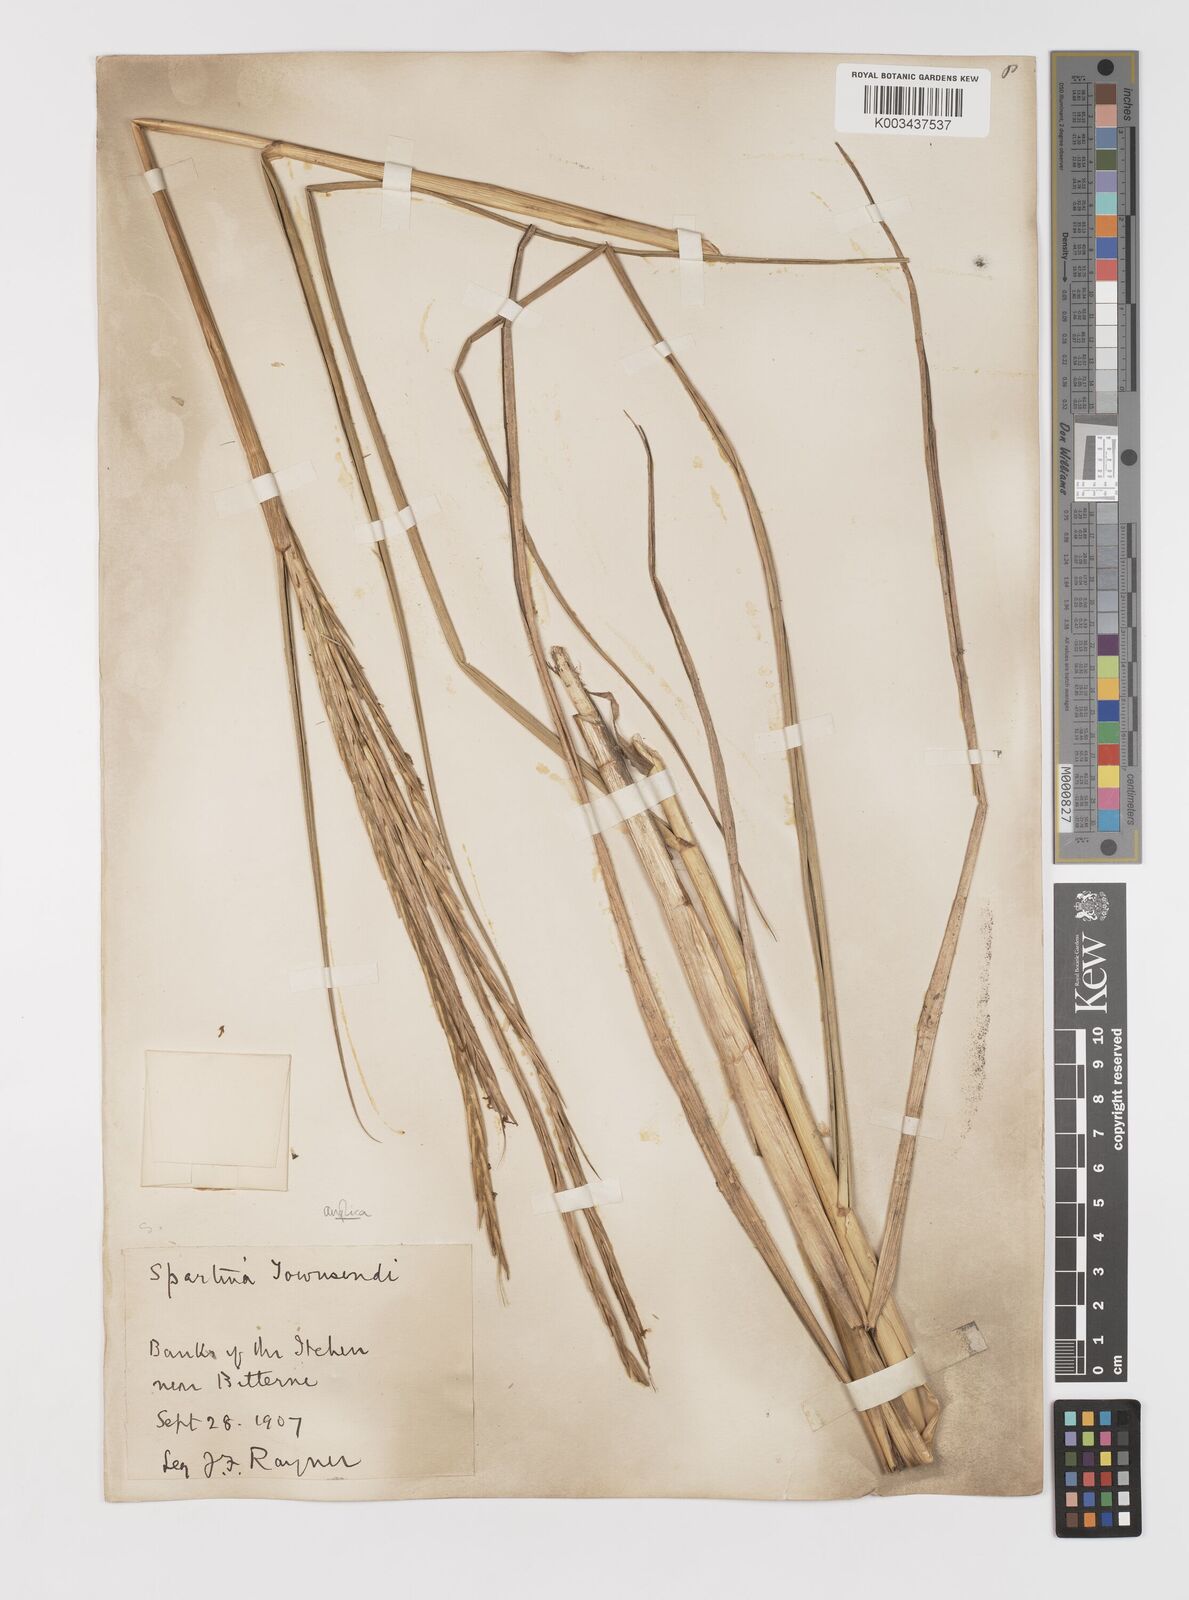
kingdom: Plantae
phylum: Tracheophyta
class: Liliopsida
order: Poales
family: Poaceae
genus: Sporobolus
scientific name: Sporobolus anglicus
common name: English cordgrass
